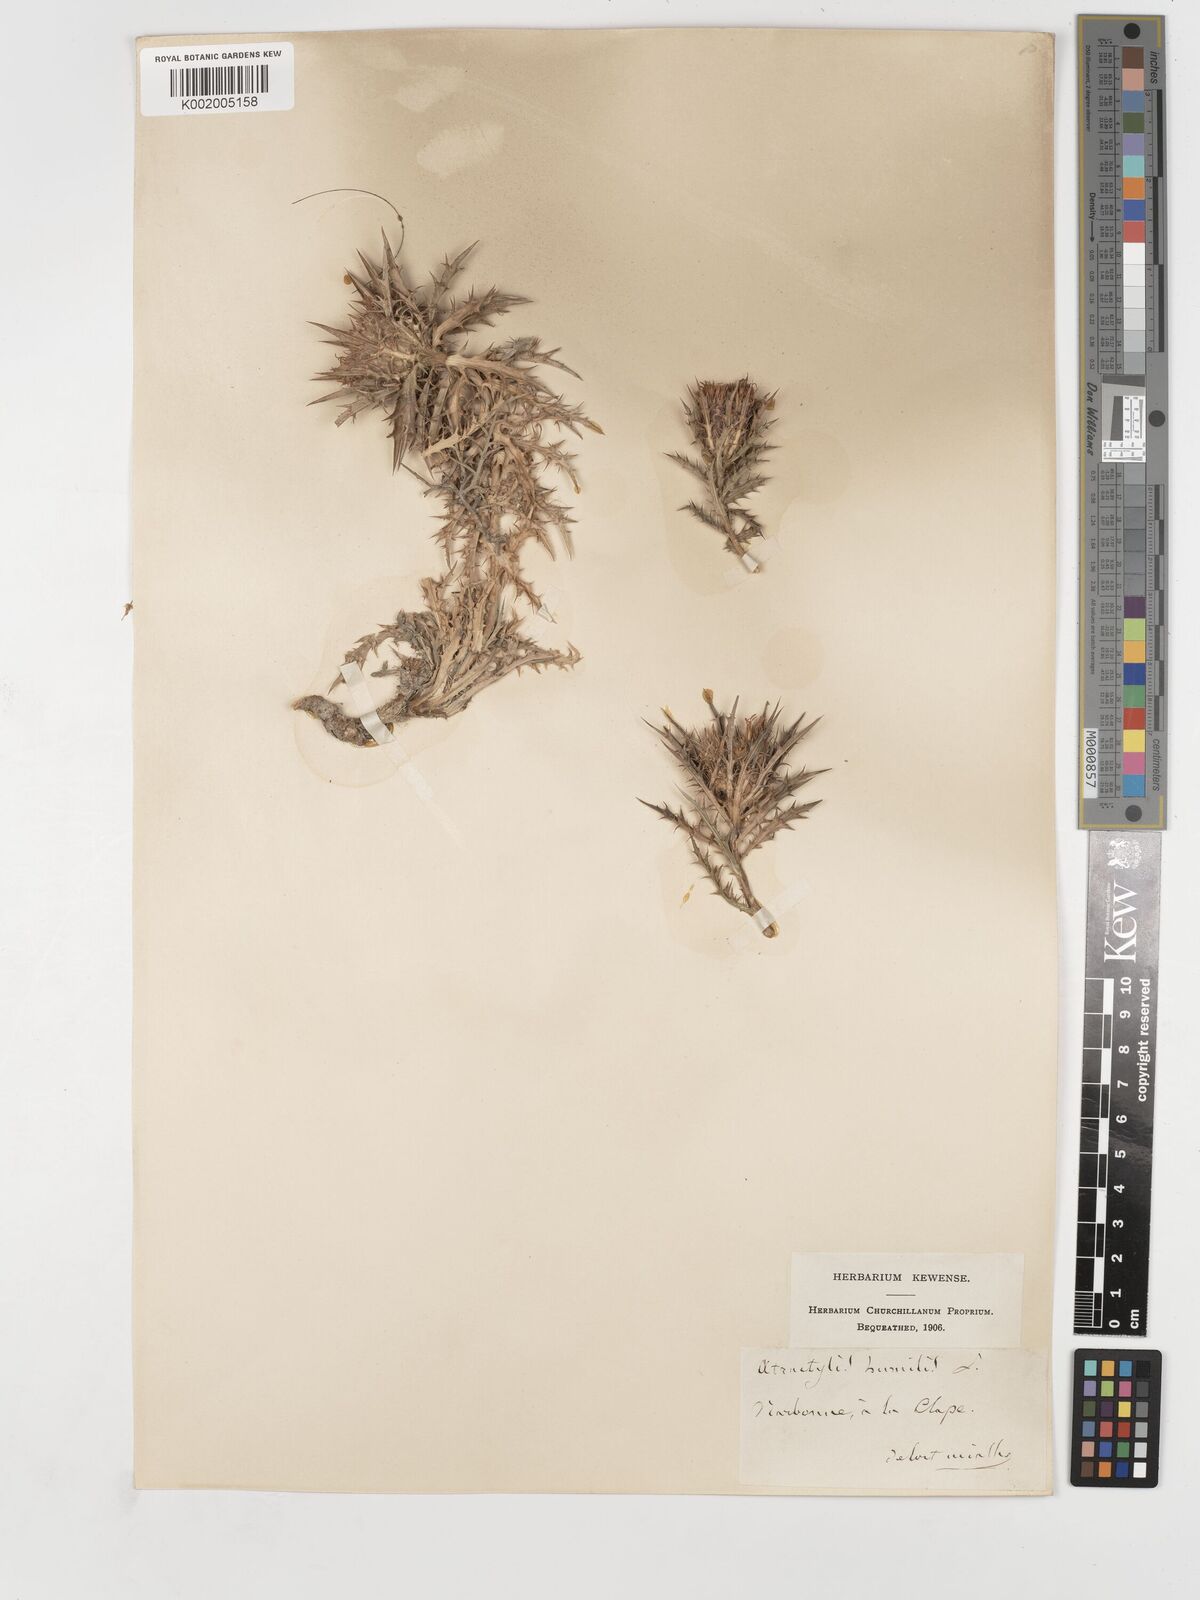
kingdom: Plantae
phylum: Tracheophyta
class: Magnoliopsida
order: Asterales
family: Asteraceae
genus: Atractylis
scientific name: Atractylis humilis
